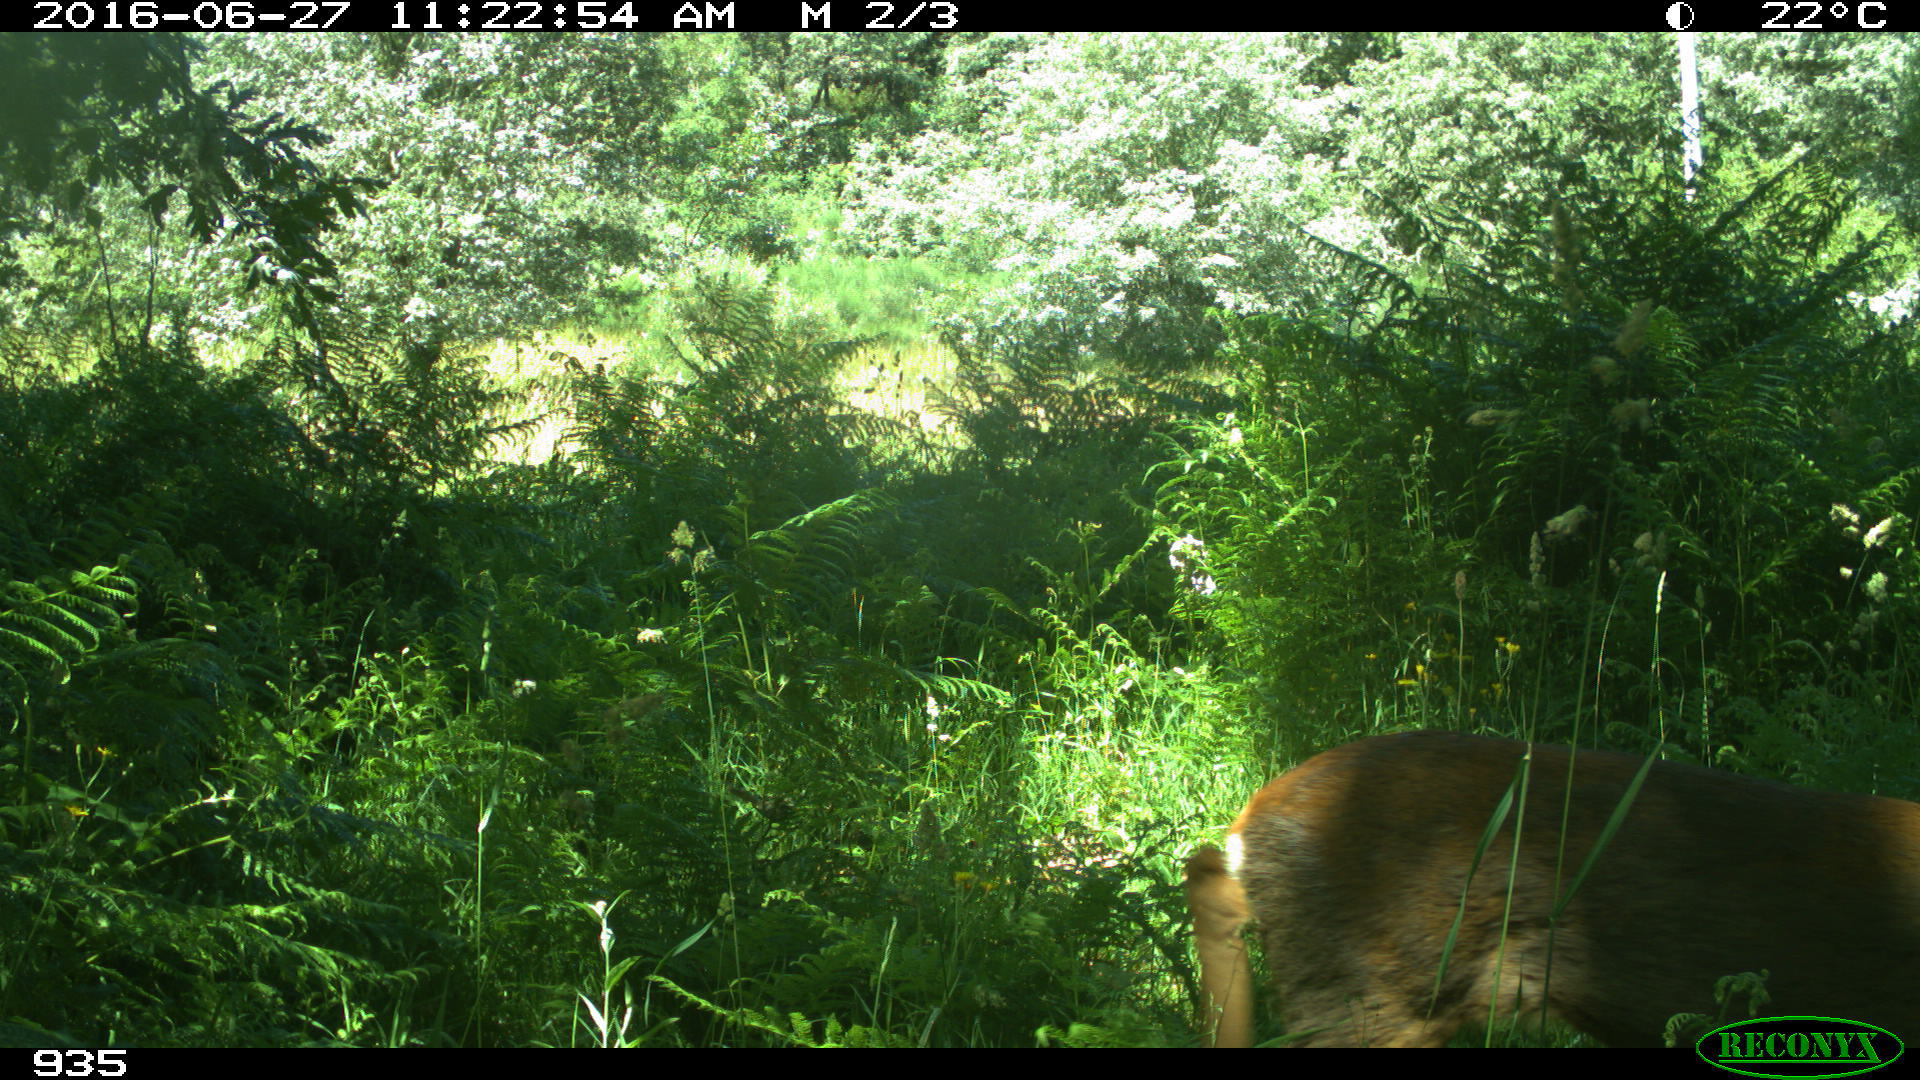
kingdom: Animalia
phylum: Chordata
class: Mammalia
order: Artiodactyla
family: Cervidae
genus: Capreolus
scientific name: Capreolus capreolus
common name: Western roe deer
